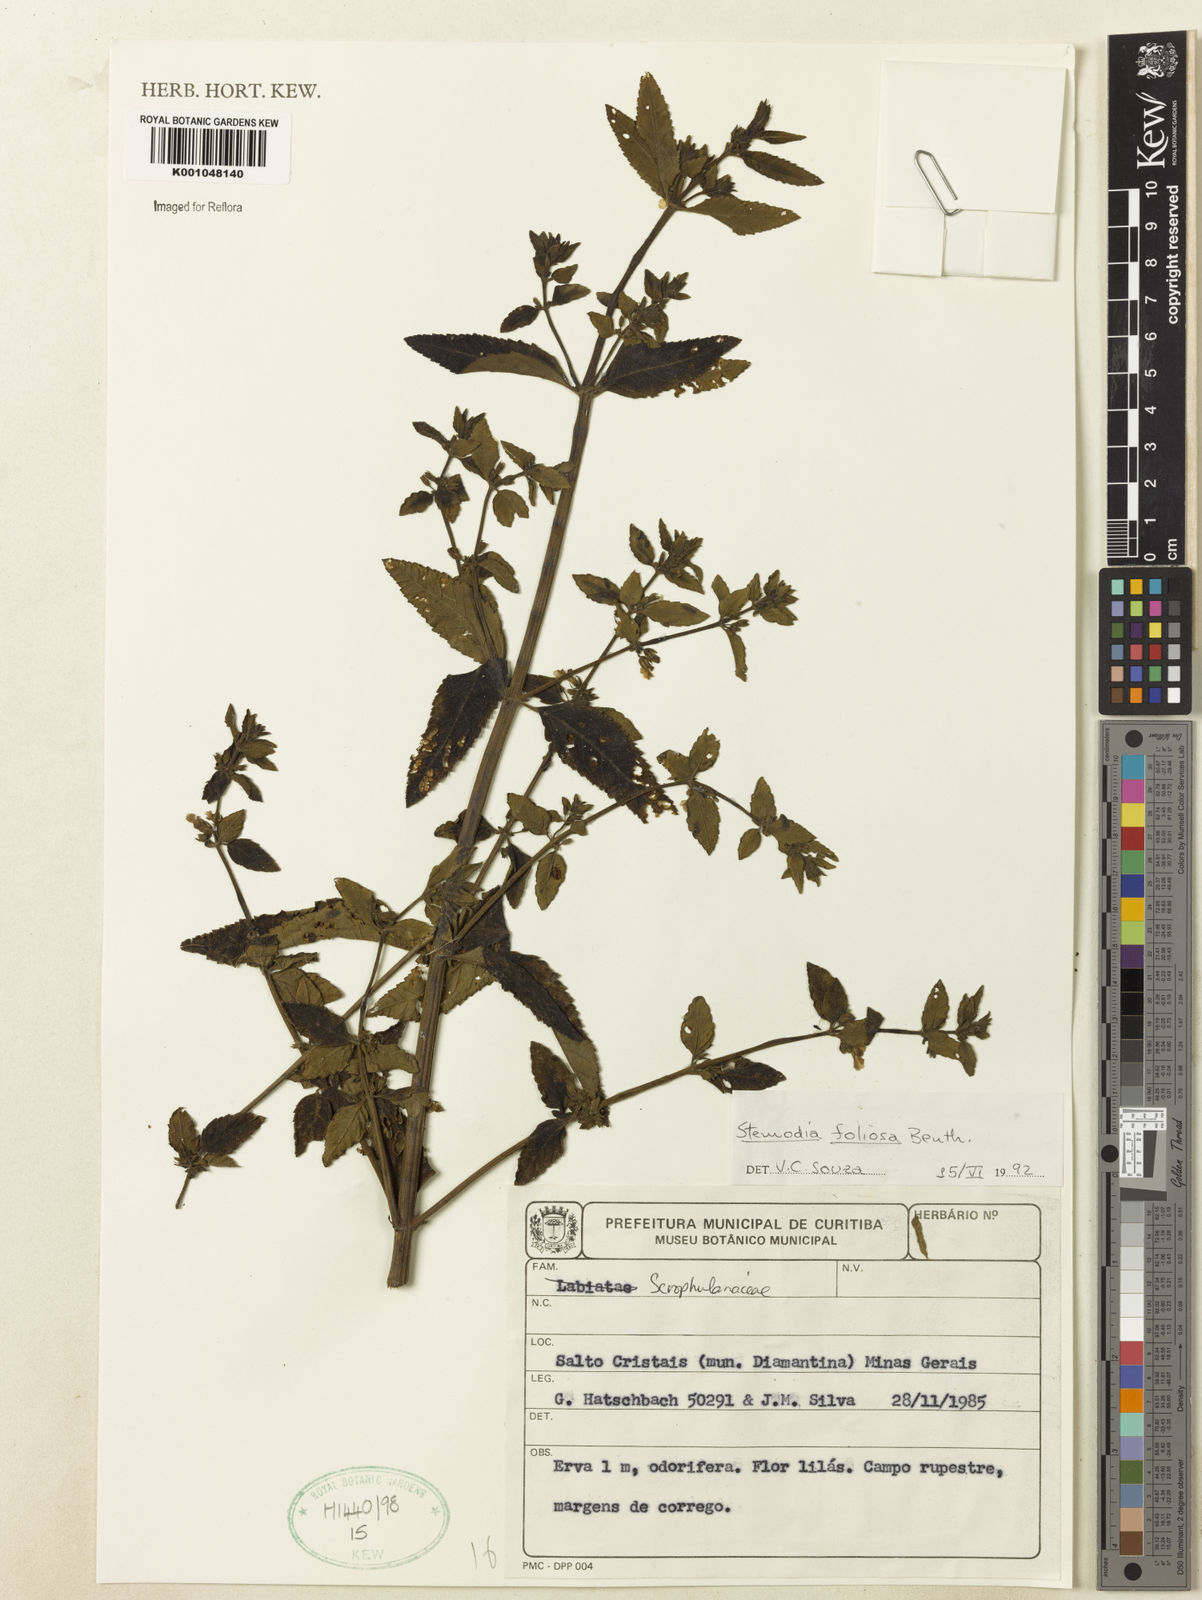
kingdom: Plantae
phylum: Tracheophyta
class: Magnoliopsida
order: Lamiales
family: Plantaginaceae
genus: Stemodia
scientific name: Stemodia foliosa
